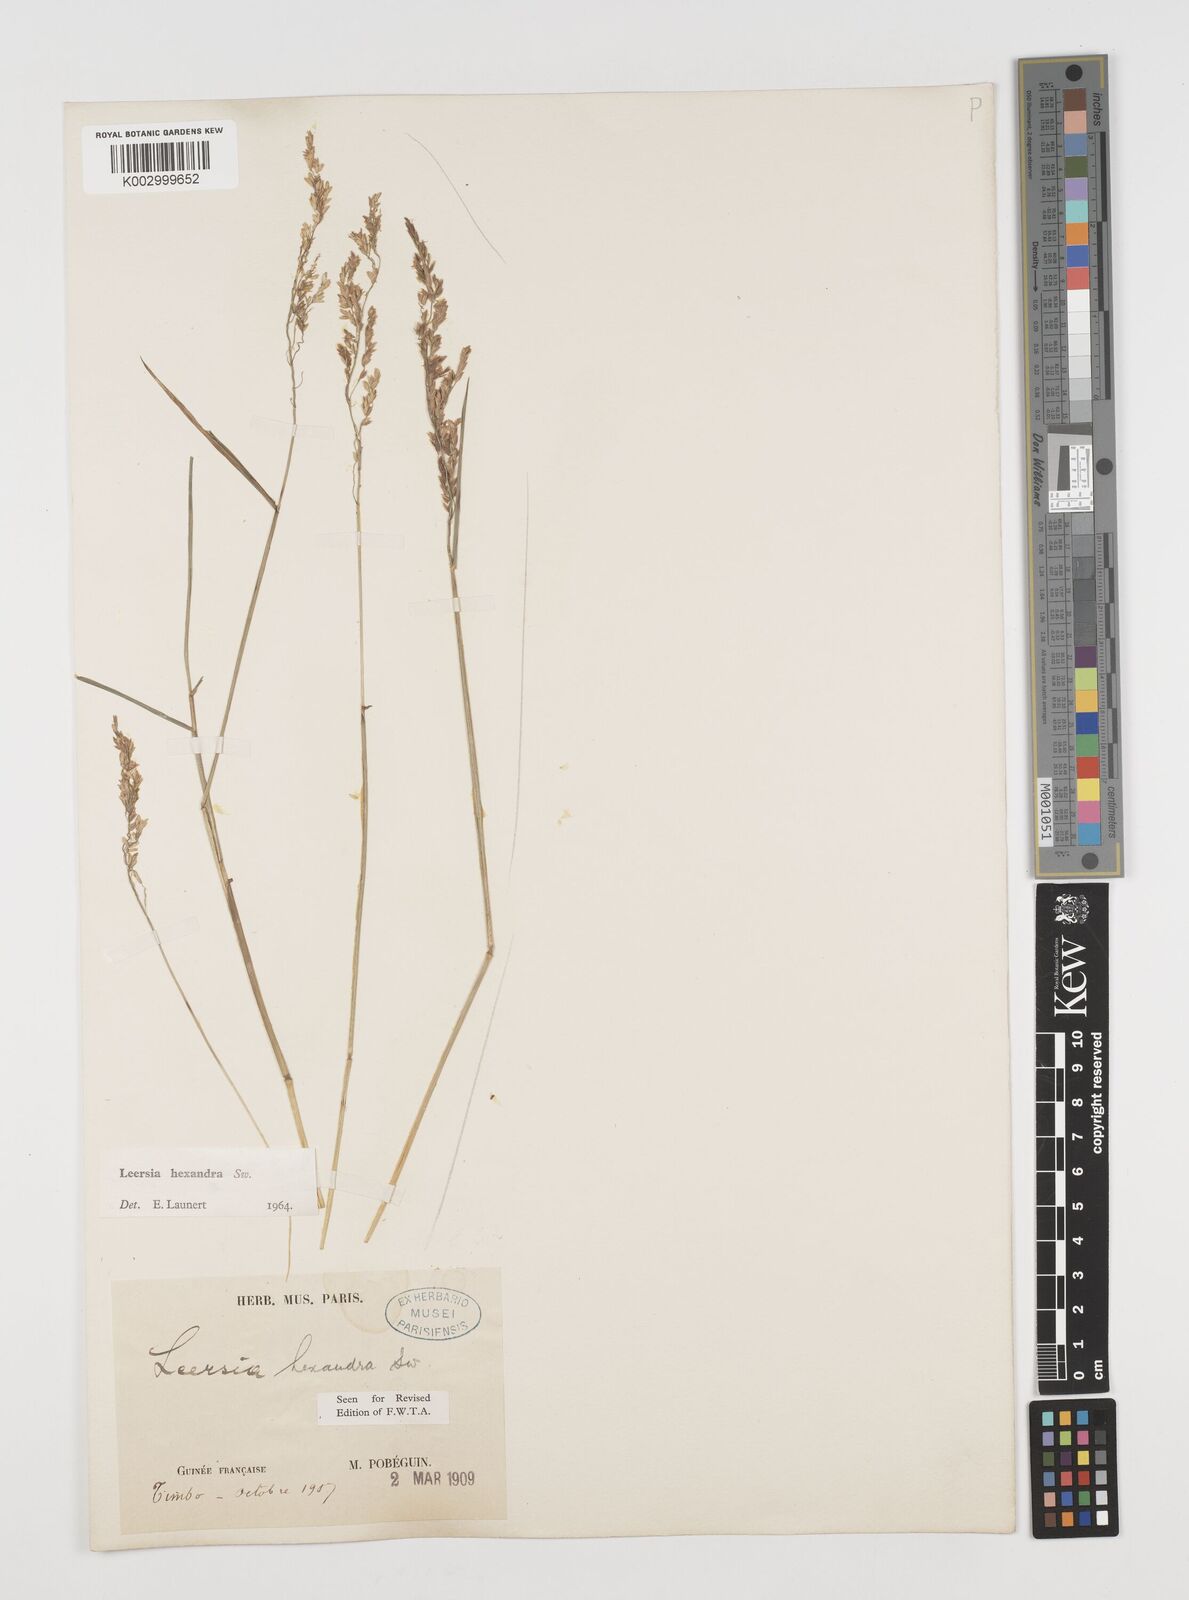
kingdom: Plantae
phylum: Tracheophyta
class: Liliopsida
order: Poales
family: Poaceae
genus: Leersia
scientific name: Leersia hexandra
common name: Southern cut grass
